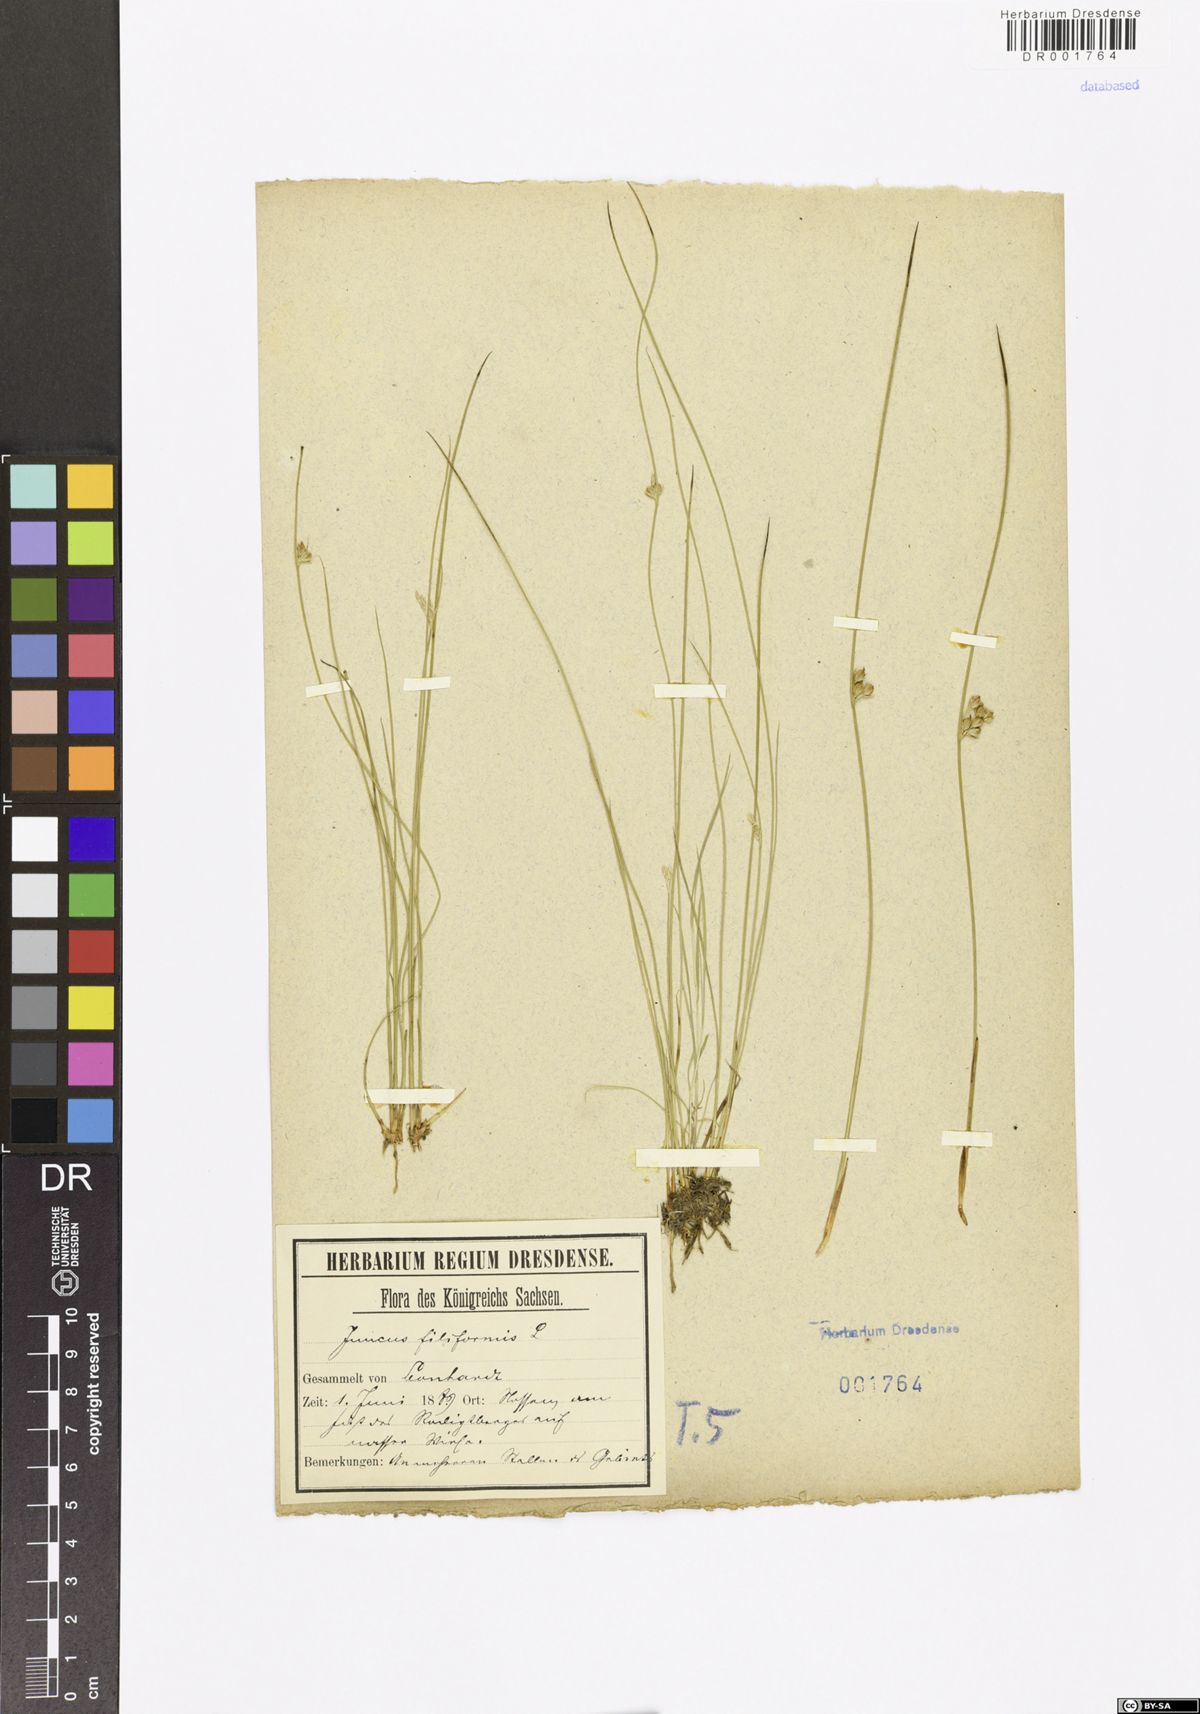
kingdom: Plantae
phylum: Tracheophyta
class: Liliopsida
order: Poales
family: Juncaceae
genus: Juncus
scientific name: Juncus filiformis
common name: Thread rush
